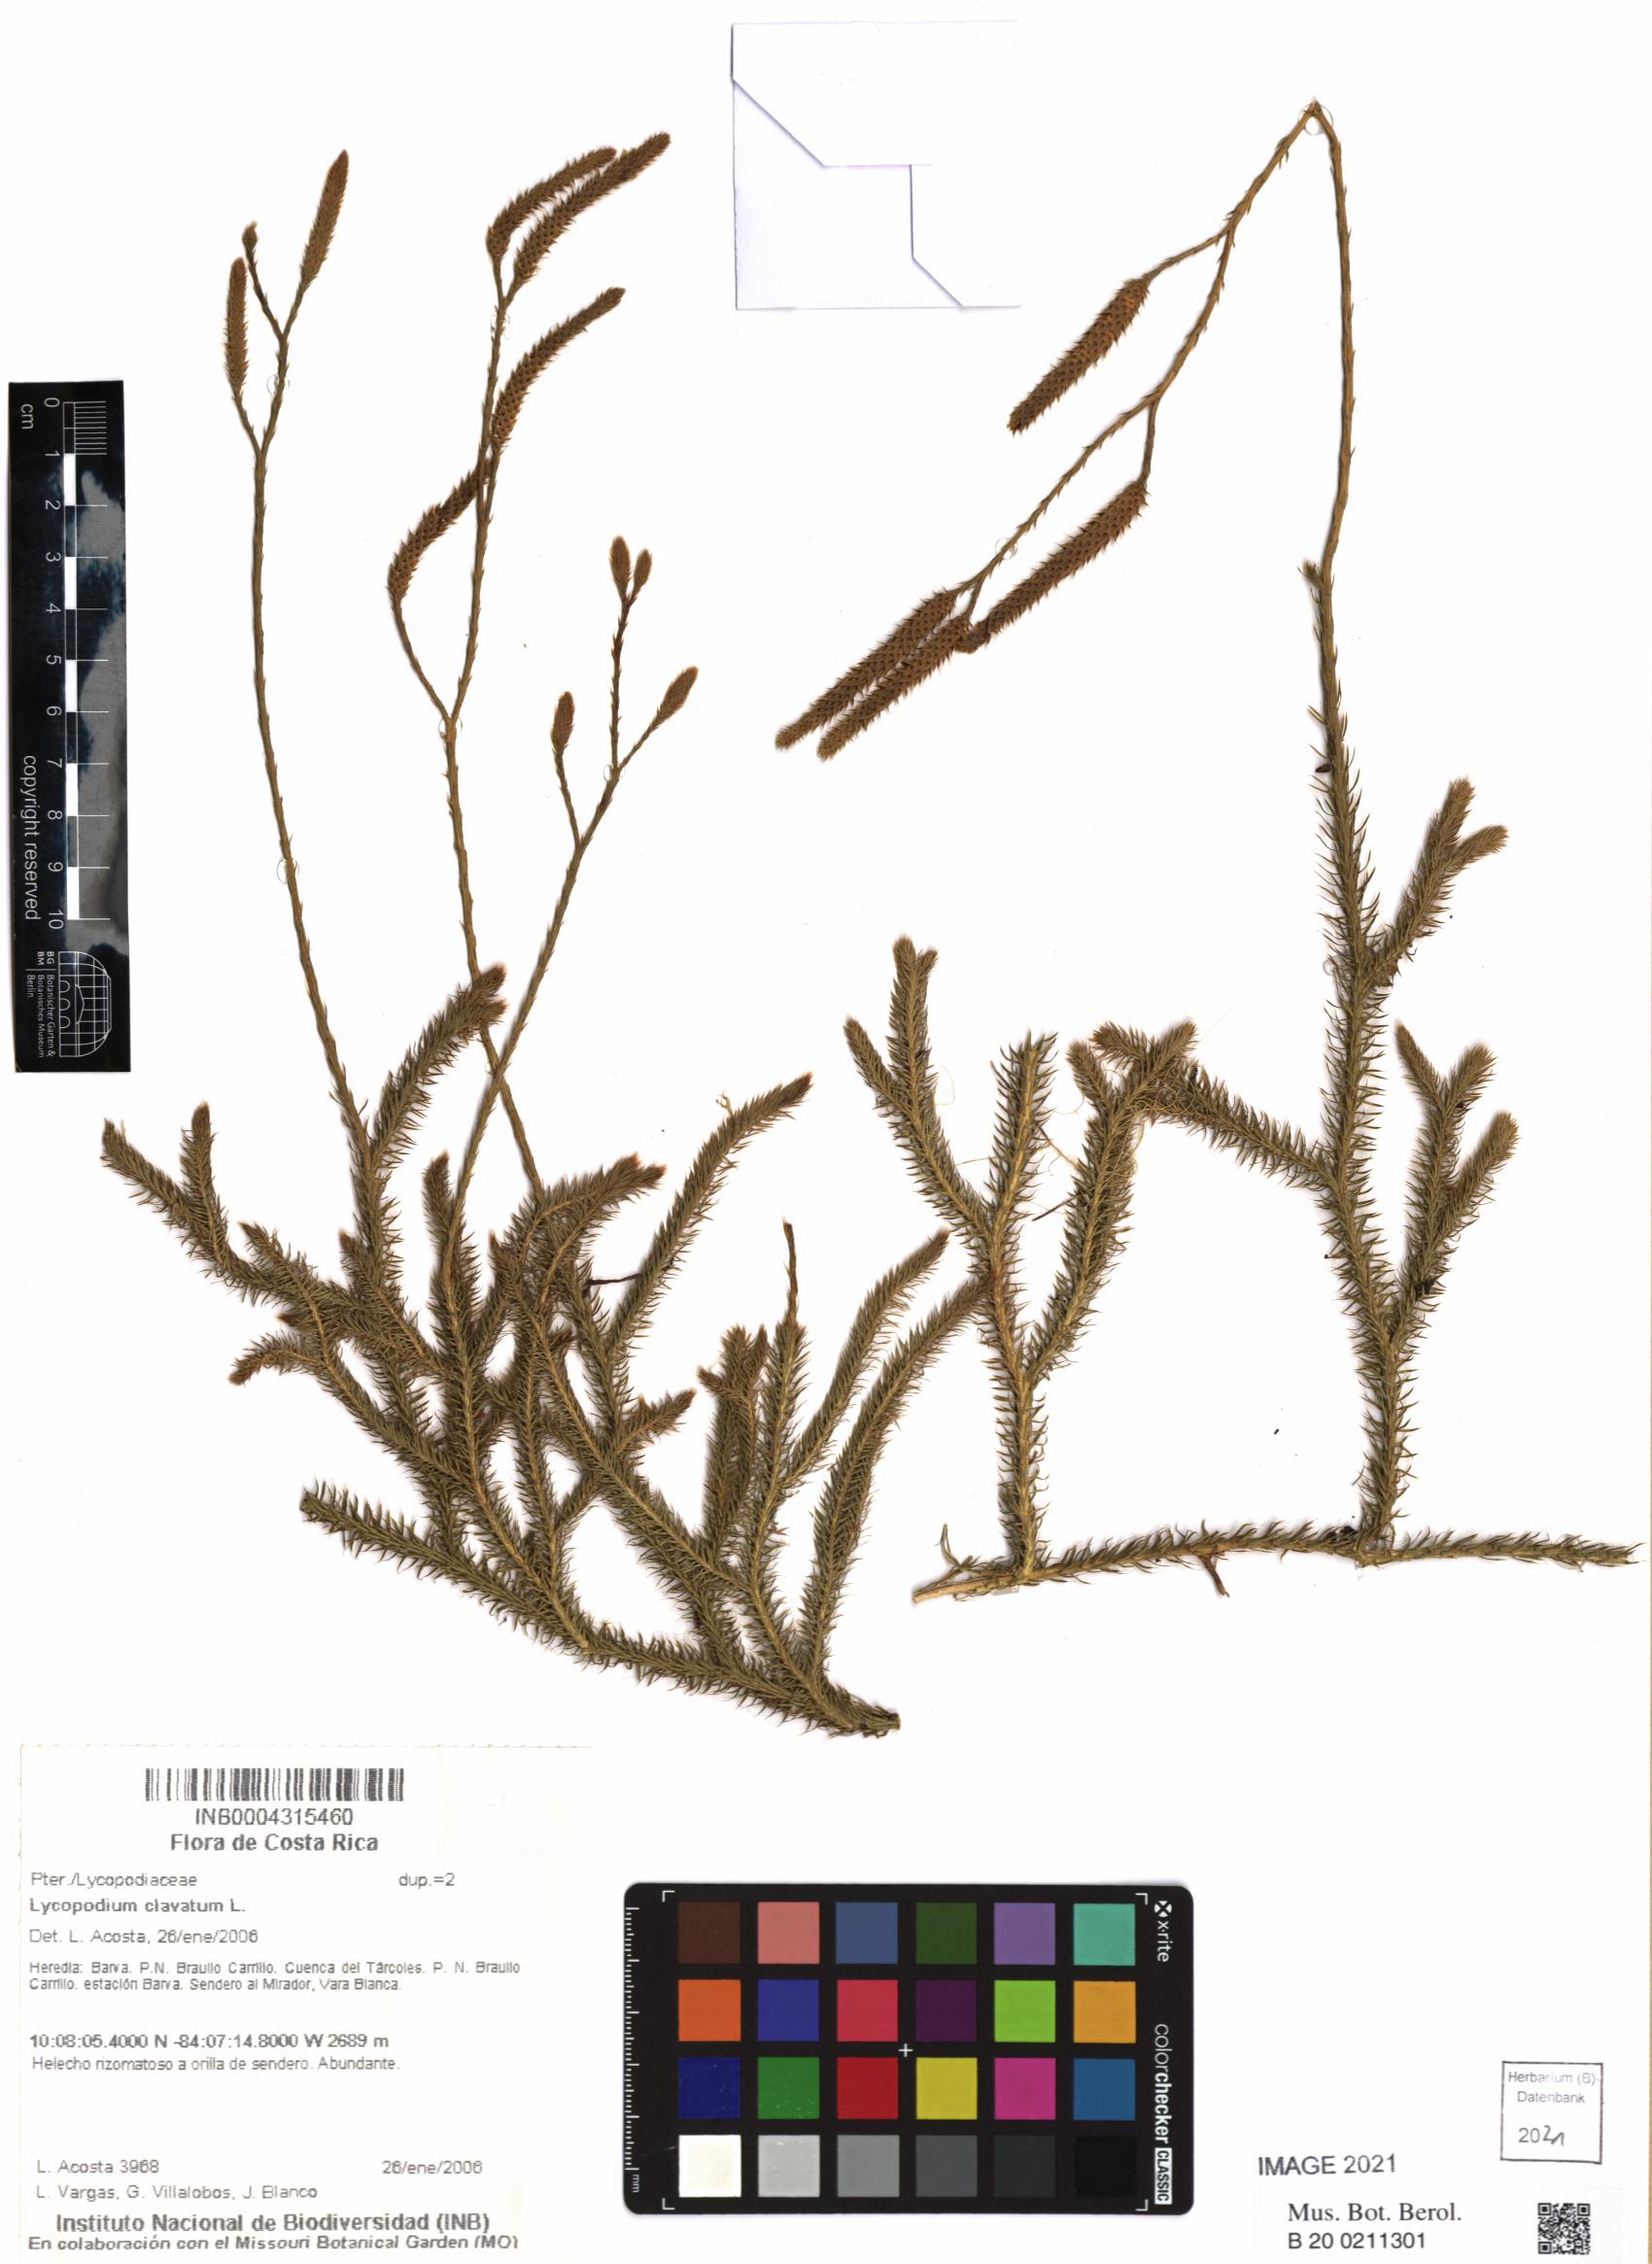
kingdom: Plantae
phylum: Tracheophyta
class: Lycopodiopsida
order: Lycopodiales
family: Lycopodiaceae
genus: Lycopodium
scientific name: Lycopodium clavatum
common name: Stag's-horn clubmoss
